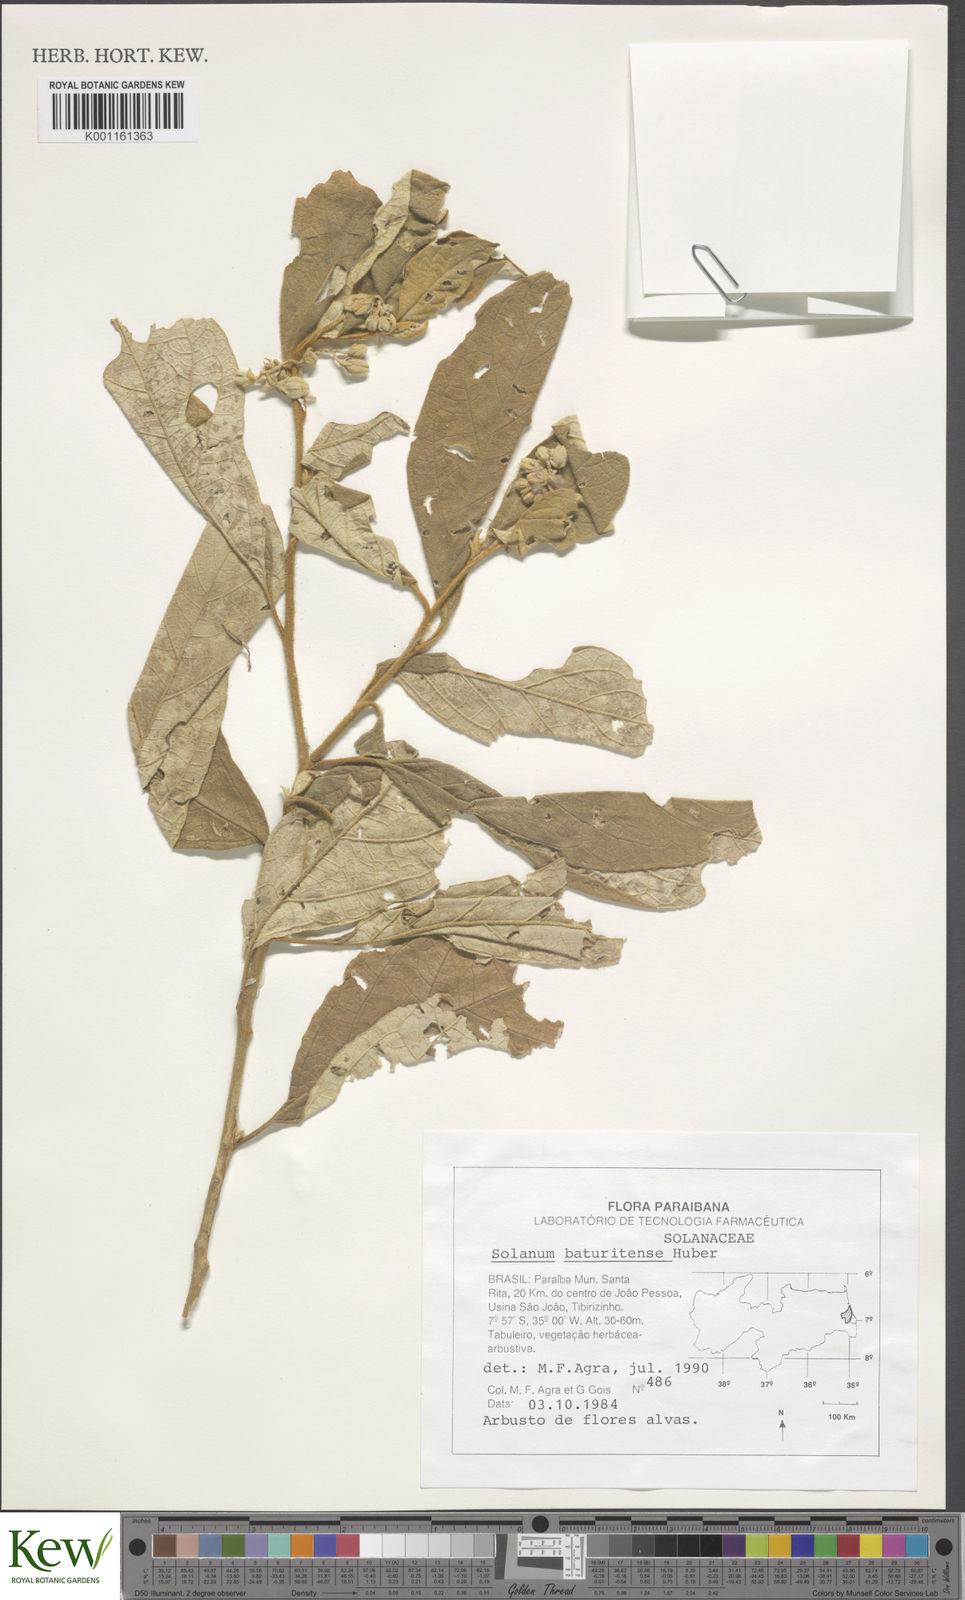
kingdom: Plantae
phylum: Tracheophyta
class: Magnoliopsida
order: Solanales
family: Solanaceae
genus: Solanum
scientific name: Solanum rhytidoandrum
